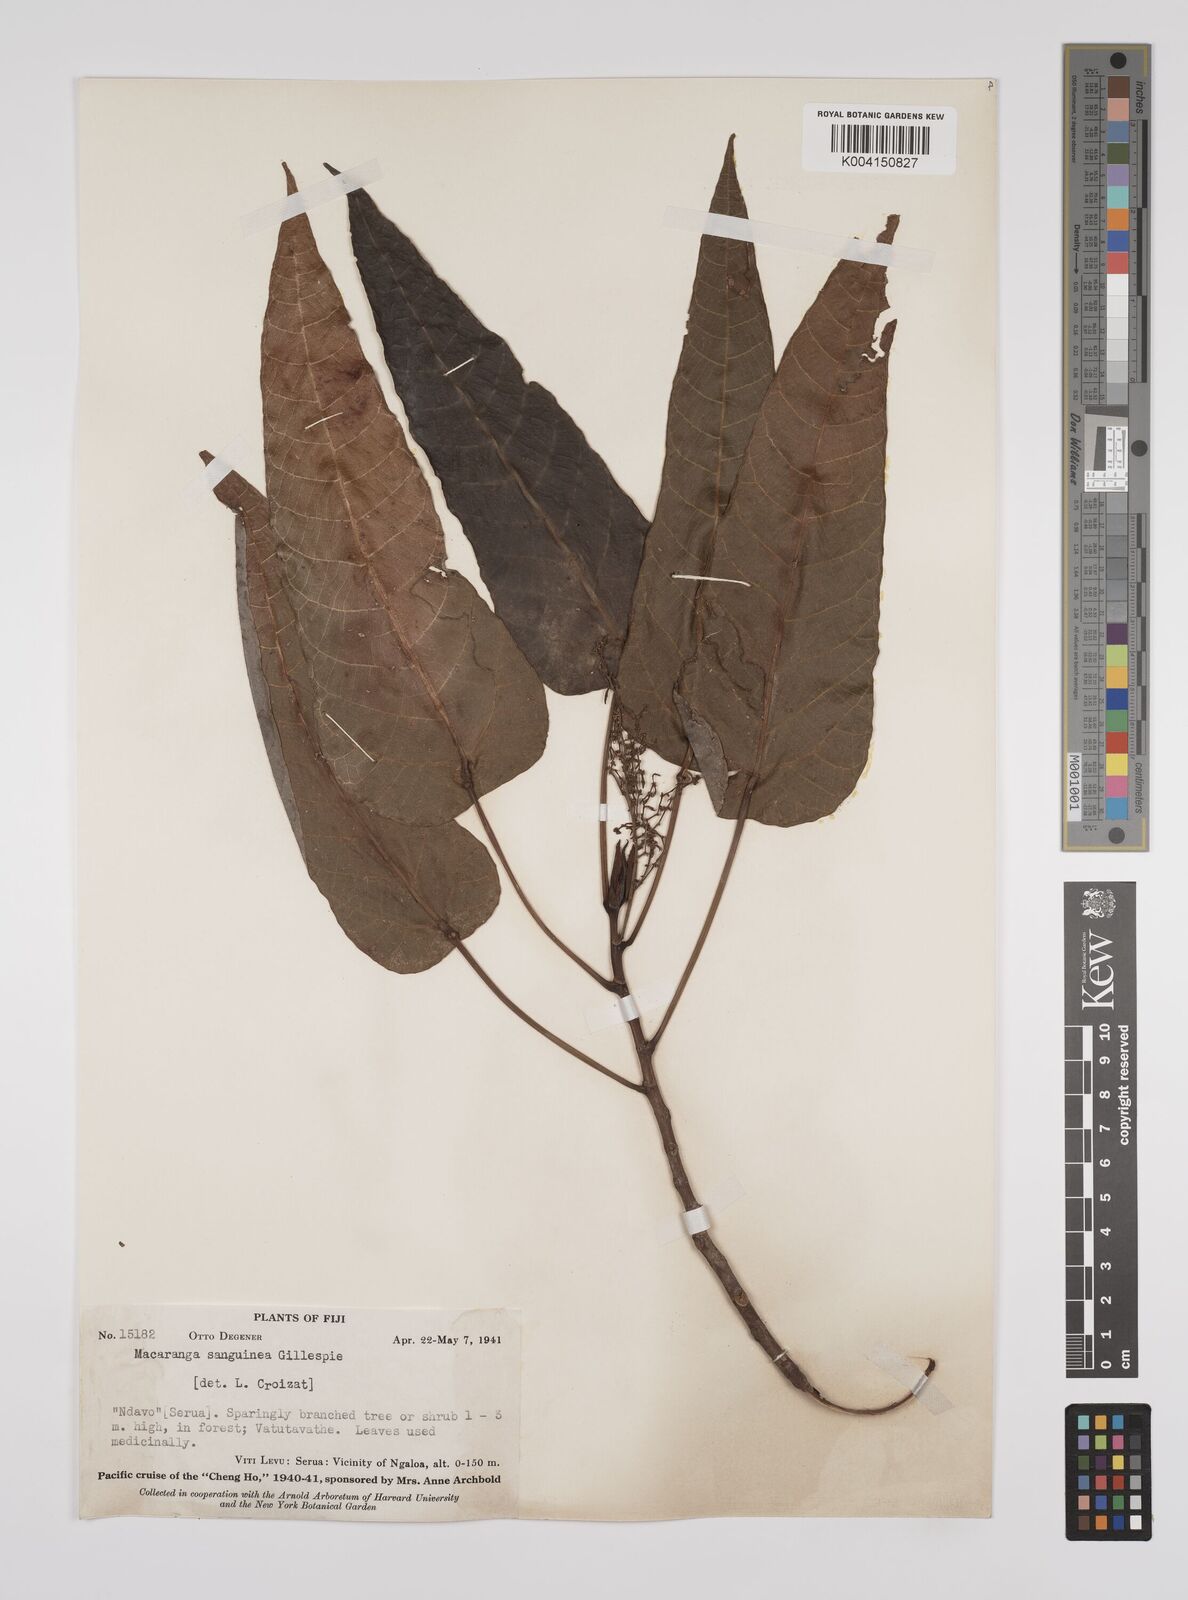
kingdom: Plantae
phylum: Tracheophyta
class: Magnoliopsida
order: Malpighiales
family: Euphorbiaceae
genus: Macaranga
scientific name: Macaranga vitiensis
